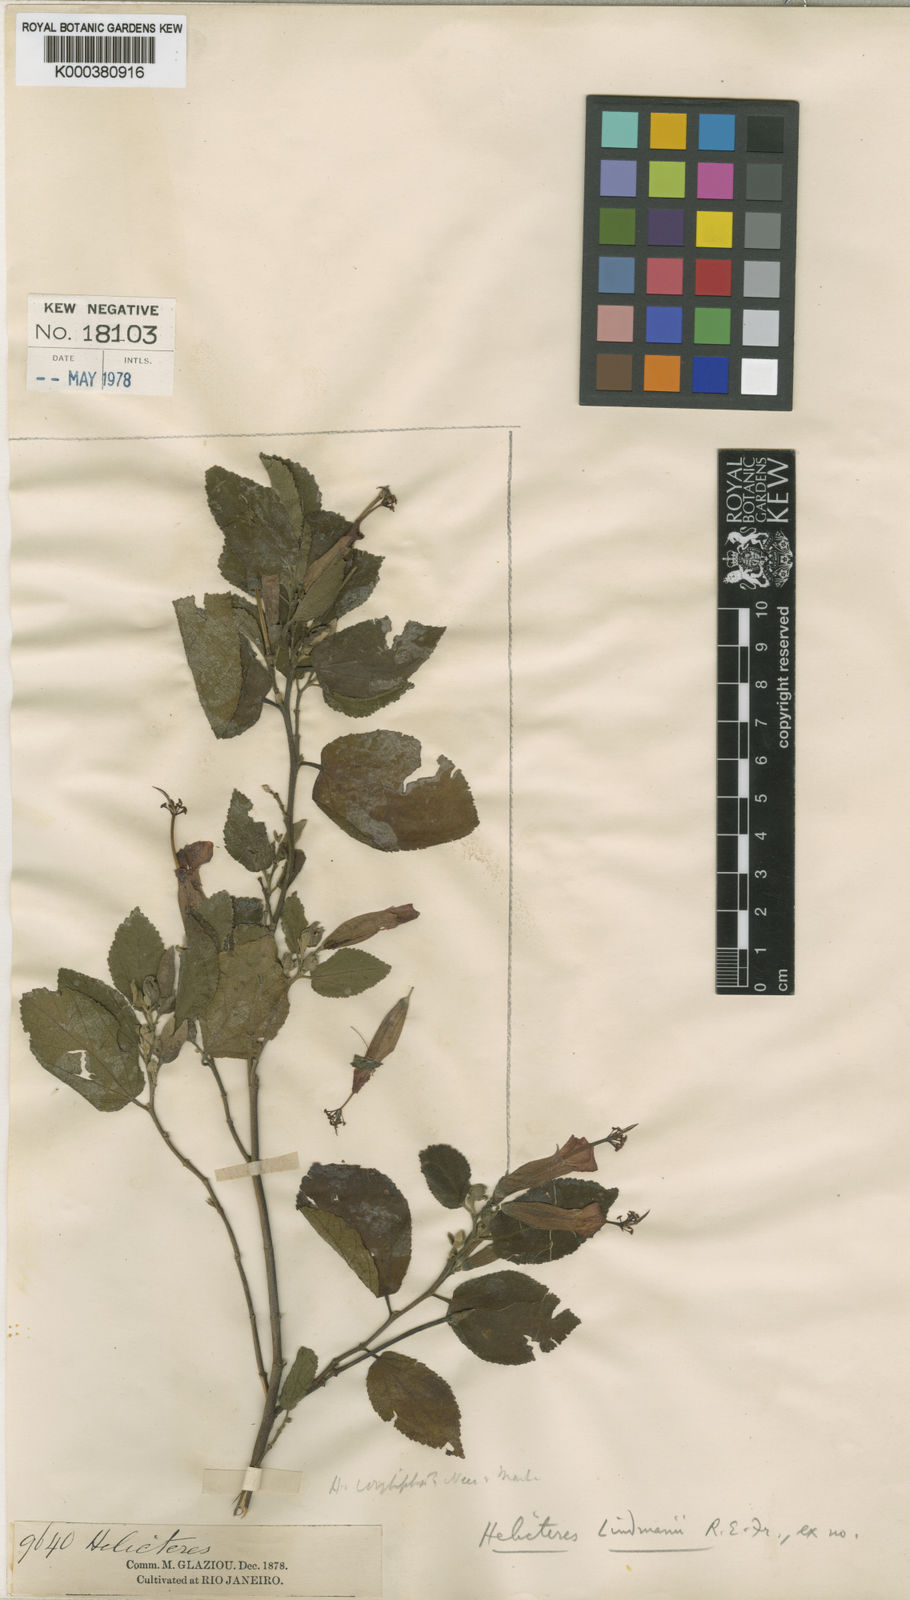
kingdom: Plantae
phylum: Tracheophyta
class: Magnoliopsida
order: Malvales
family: Malvaceae
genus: Helicteres
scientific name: Helicteres corylifolia
